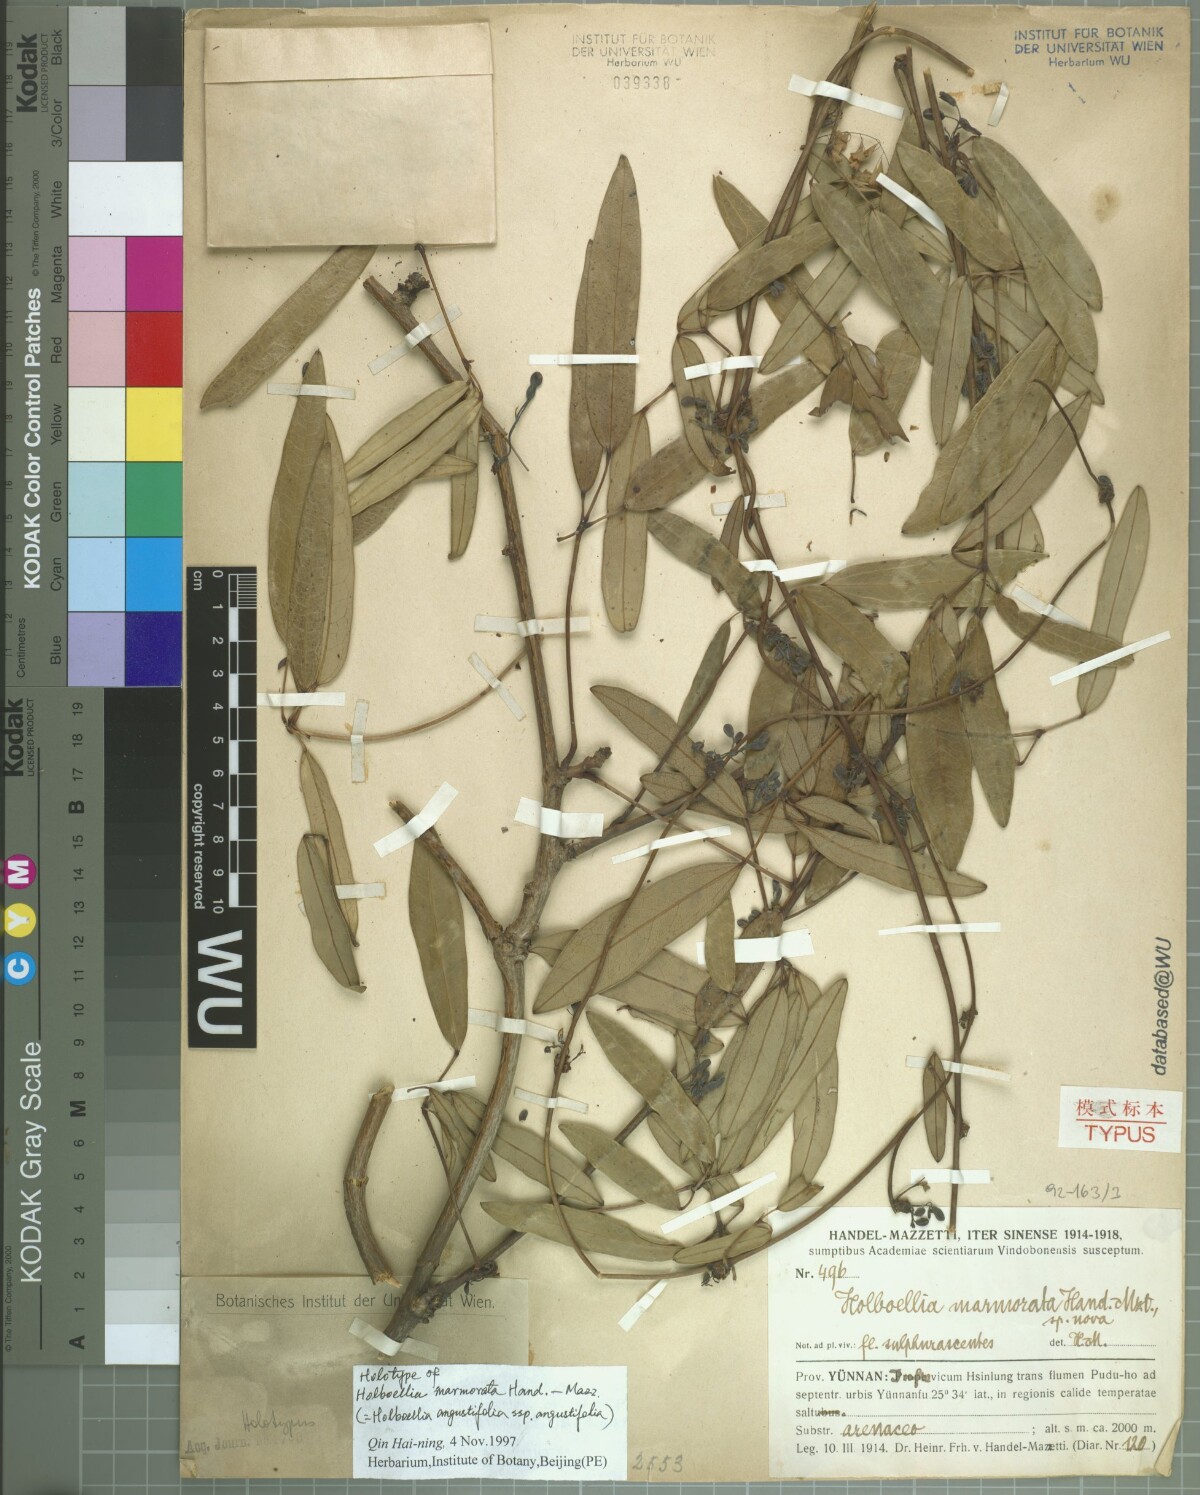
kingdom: Plantae
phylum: Tracheophyta
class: Magnoliopsida
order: Ranunculales
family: Lardizabalaceae
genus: Stauntonia
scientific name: Stauntonia angustifolia
